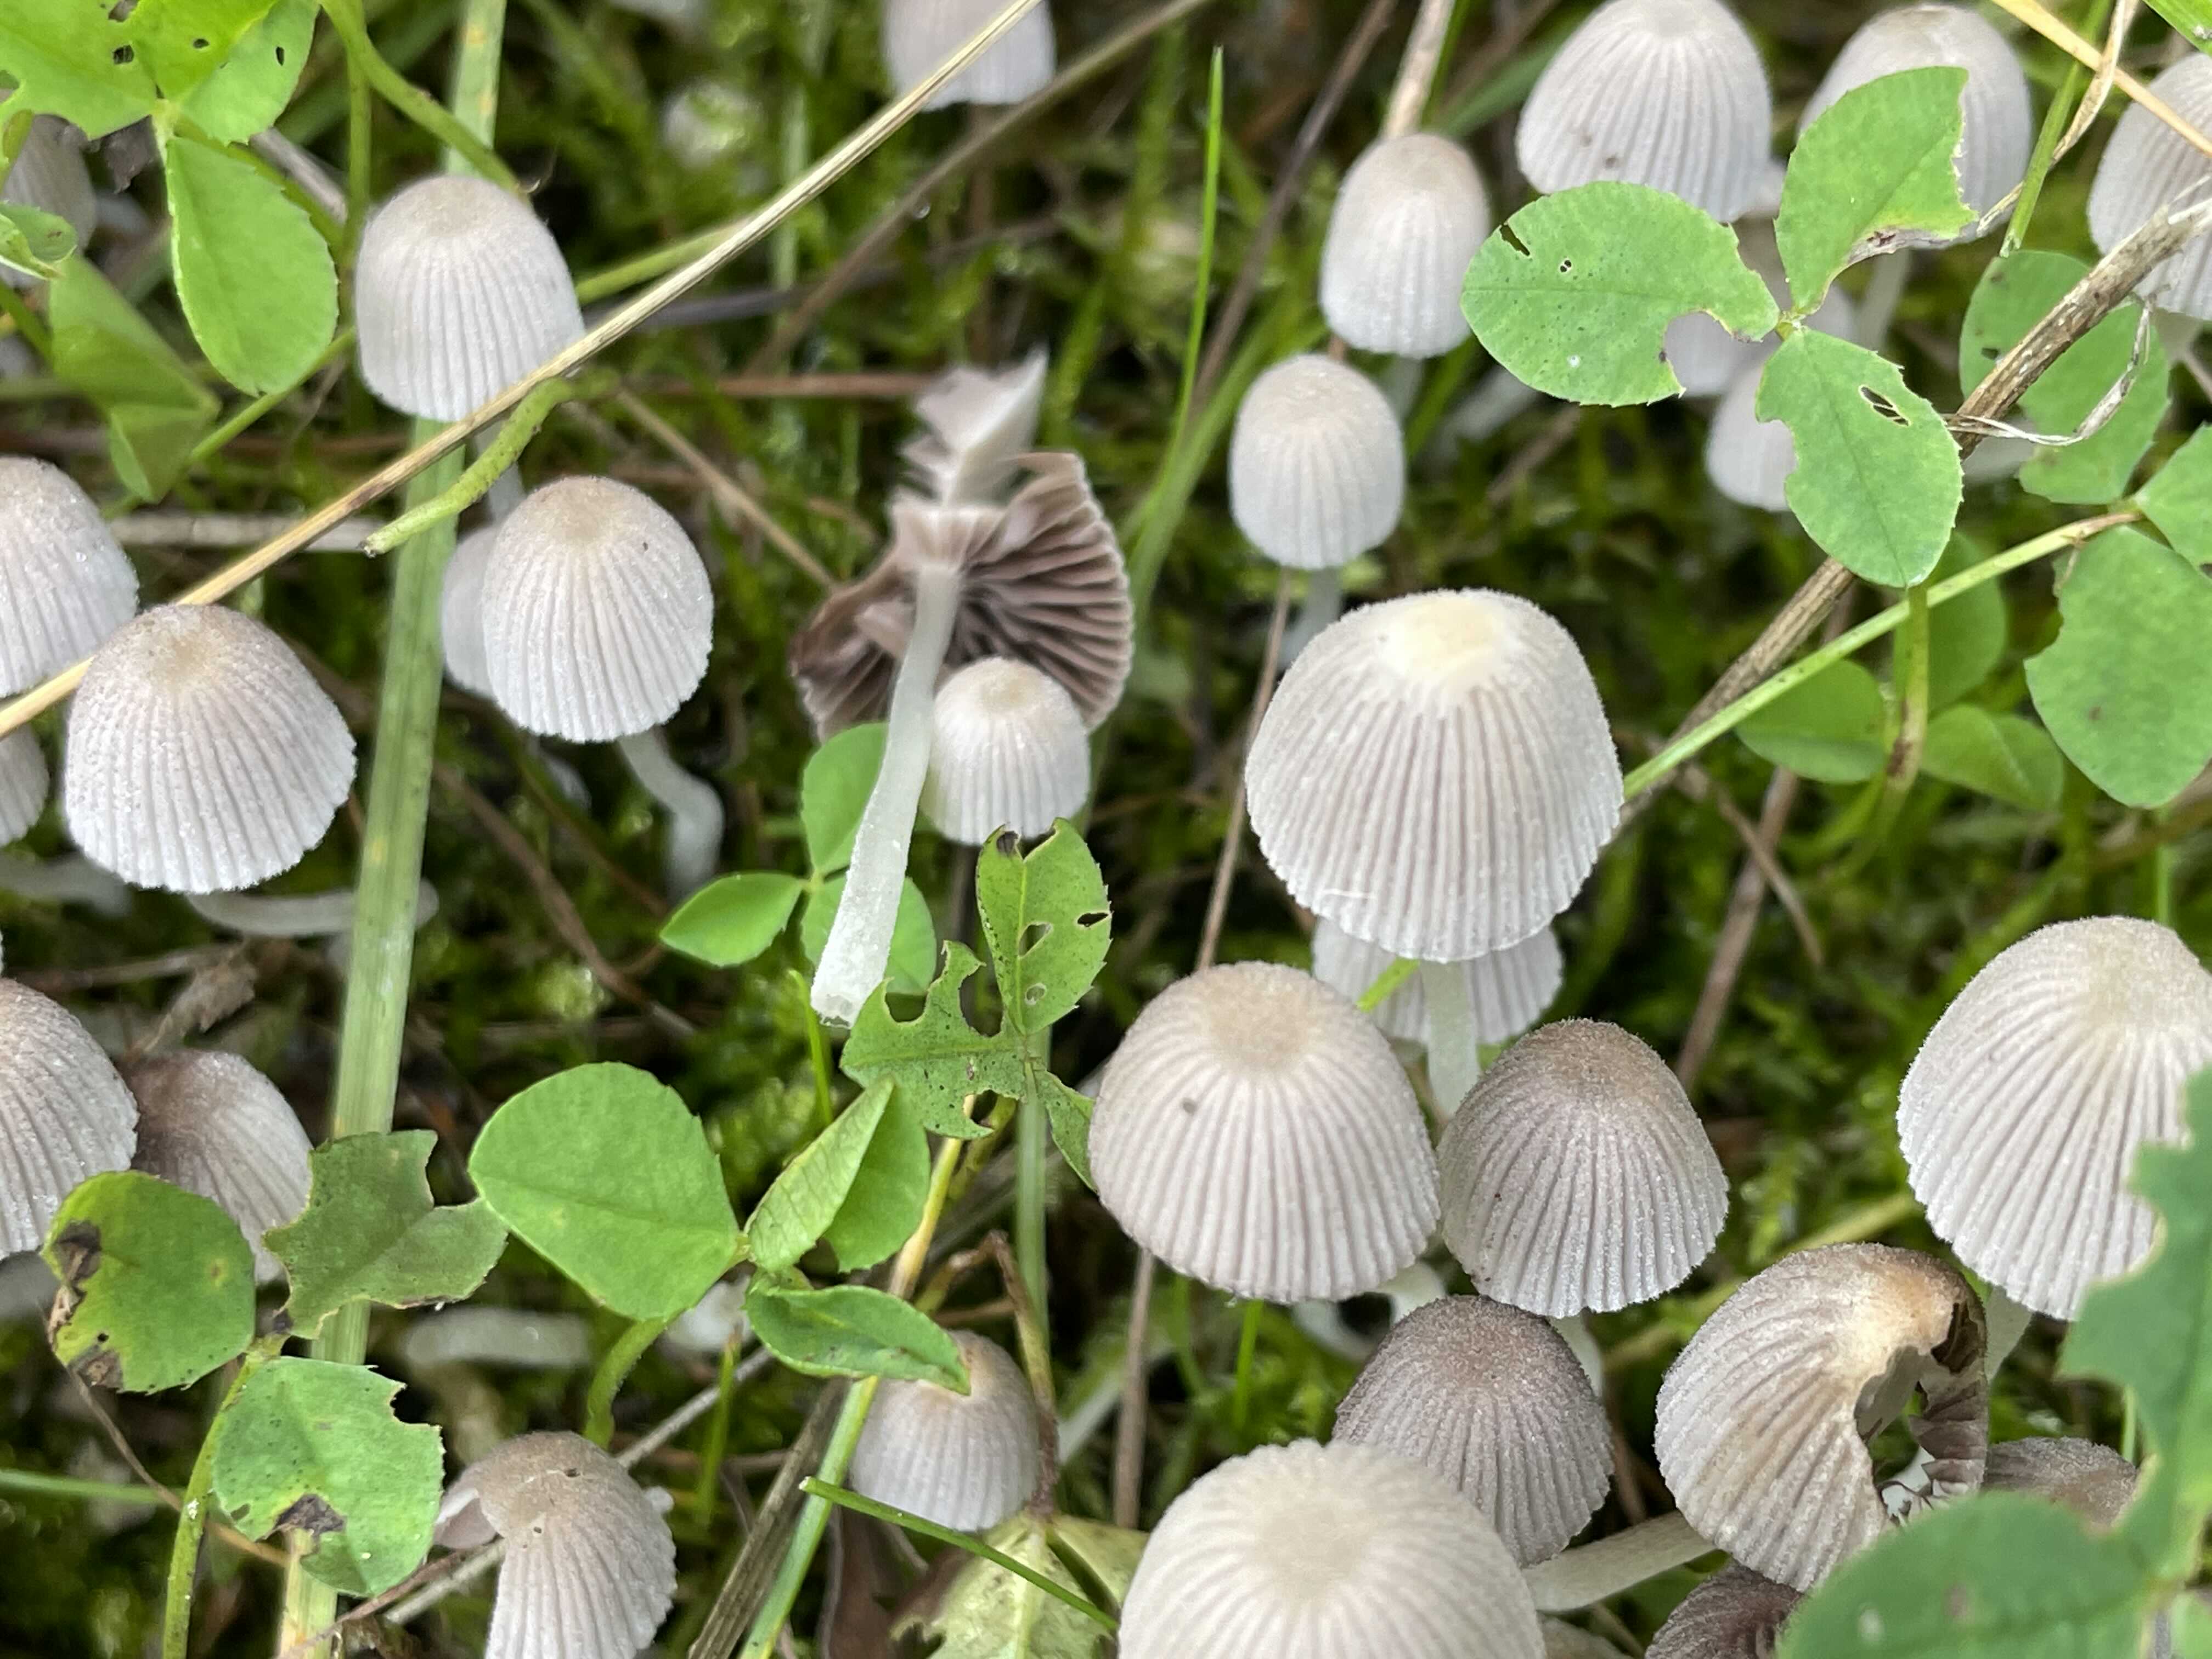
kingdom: Fungi
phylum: Basidiomycota
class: Agaricomycetes
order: Agaricales
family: Psathyrellaceae
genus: Coprinellus
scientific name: Coprinellus disseminatus
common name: bredsået blækhat
